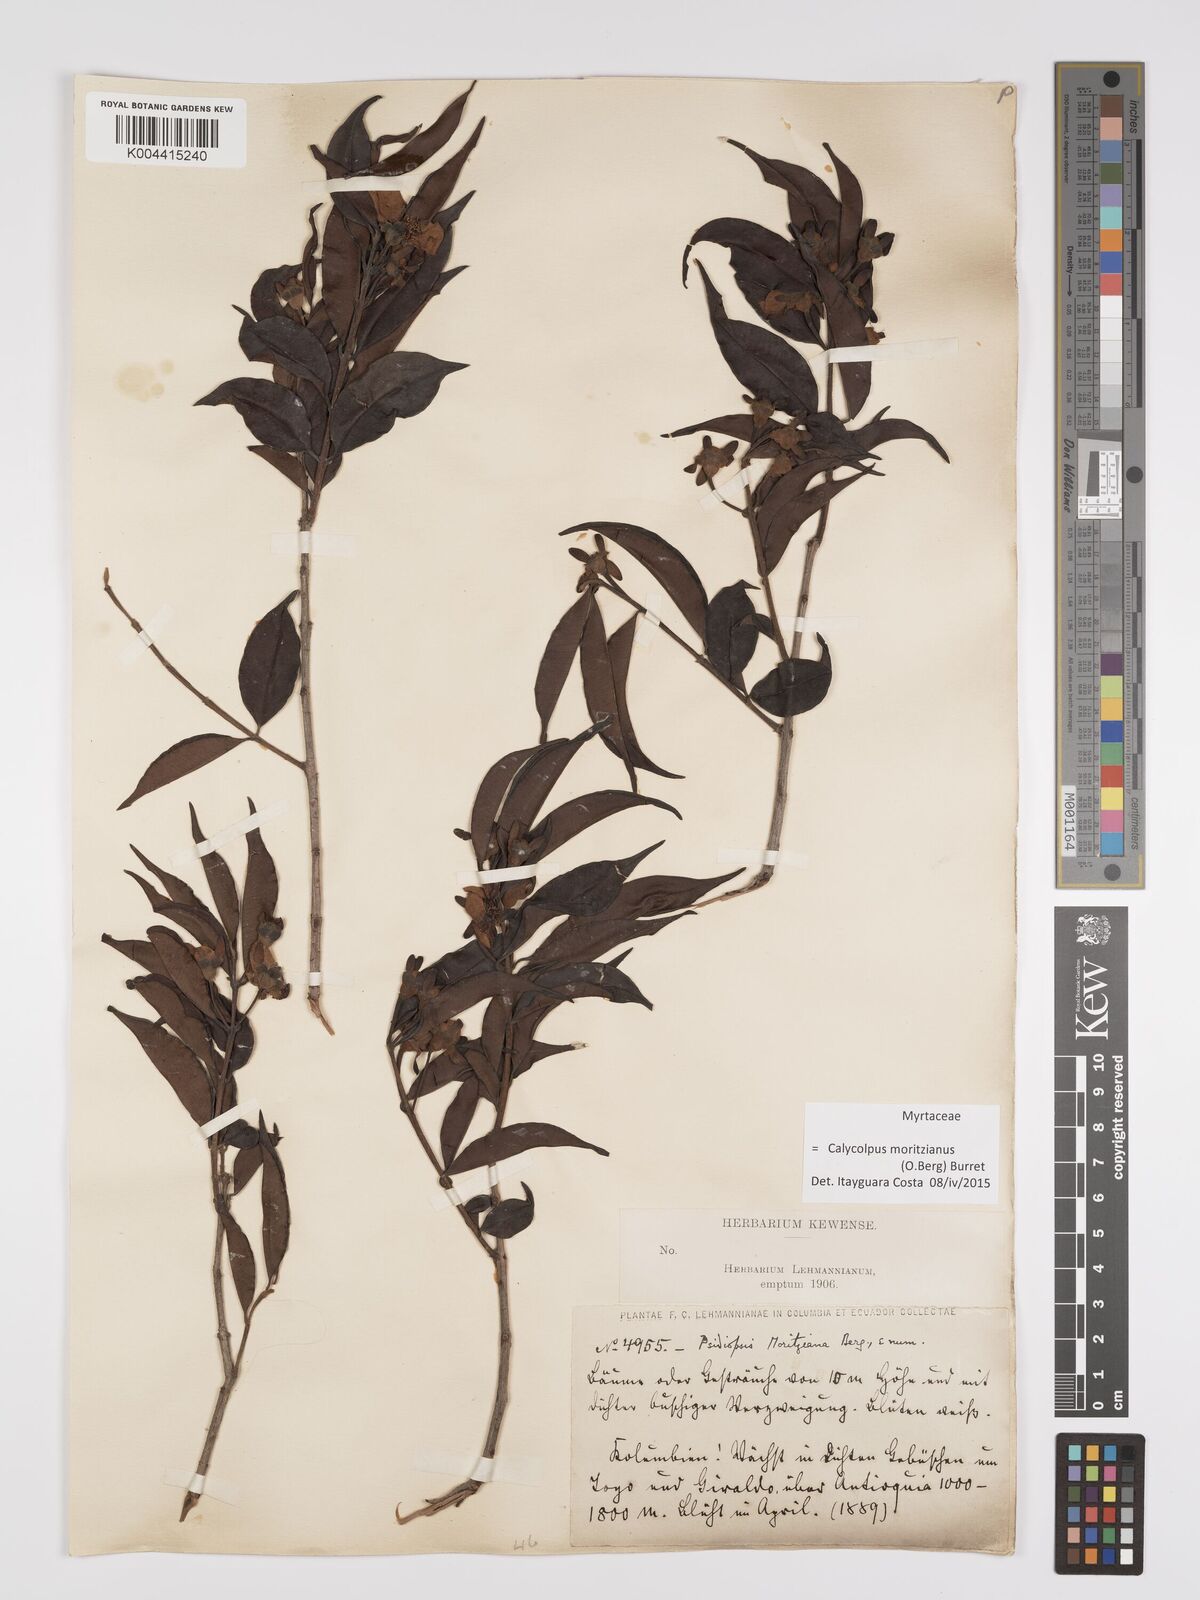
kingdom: Plantae
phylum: Tracheophyta
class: Magnoliopsida
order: Myrtales
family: Myrtaceae
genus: Calycolpus
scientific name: Calycolpus moritzianus
